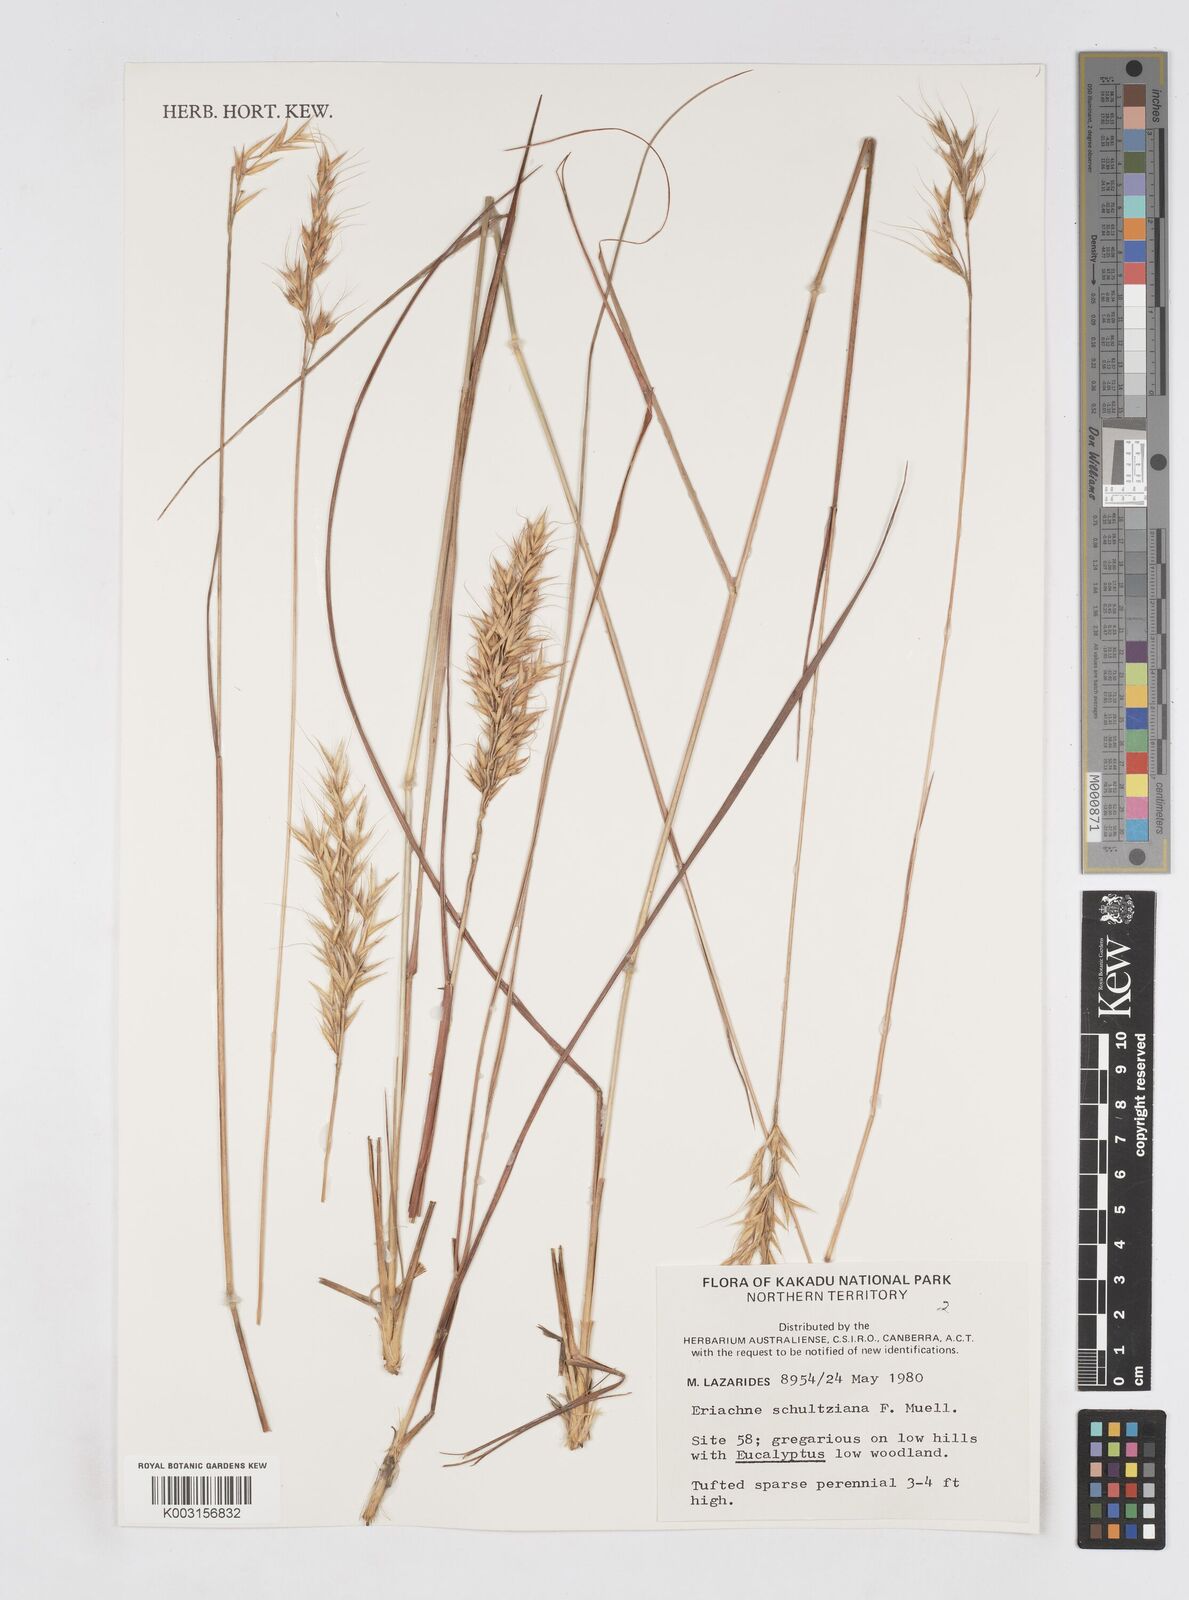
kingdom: Plantae
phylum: Tracheophyta
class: Liliopsida
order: Poales
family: Poaceae
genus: Eriachne
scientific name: Eriachne schultziana
